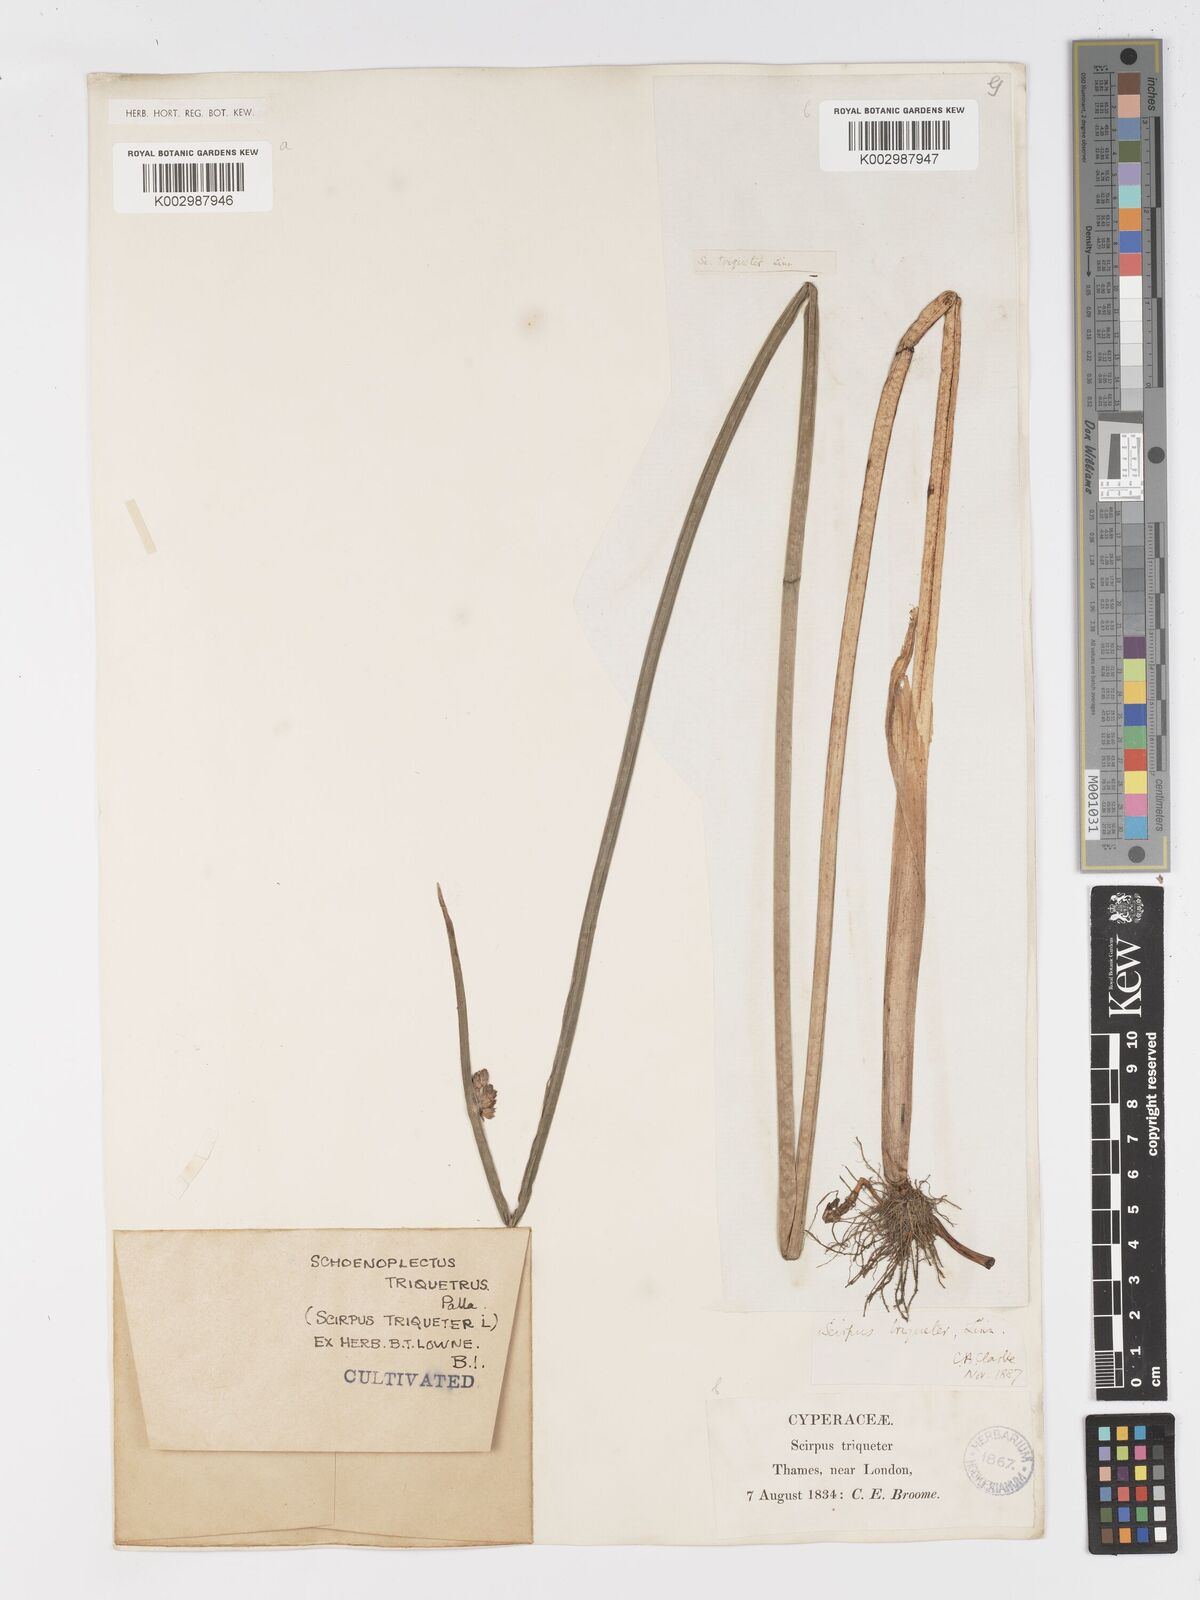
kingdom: Plantae
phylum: Tracheophyta
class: Liliopsida
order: Poales
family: Cyperaceae
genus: Schoenoplectus
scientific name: Schoenoplectus triqueter
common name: Triangular club-rush
